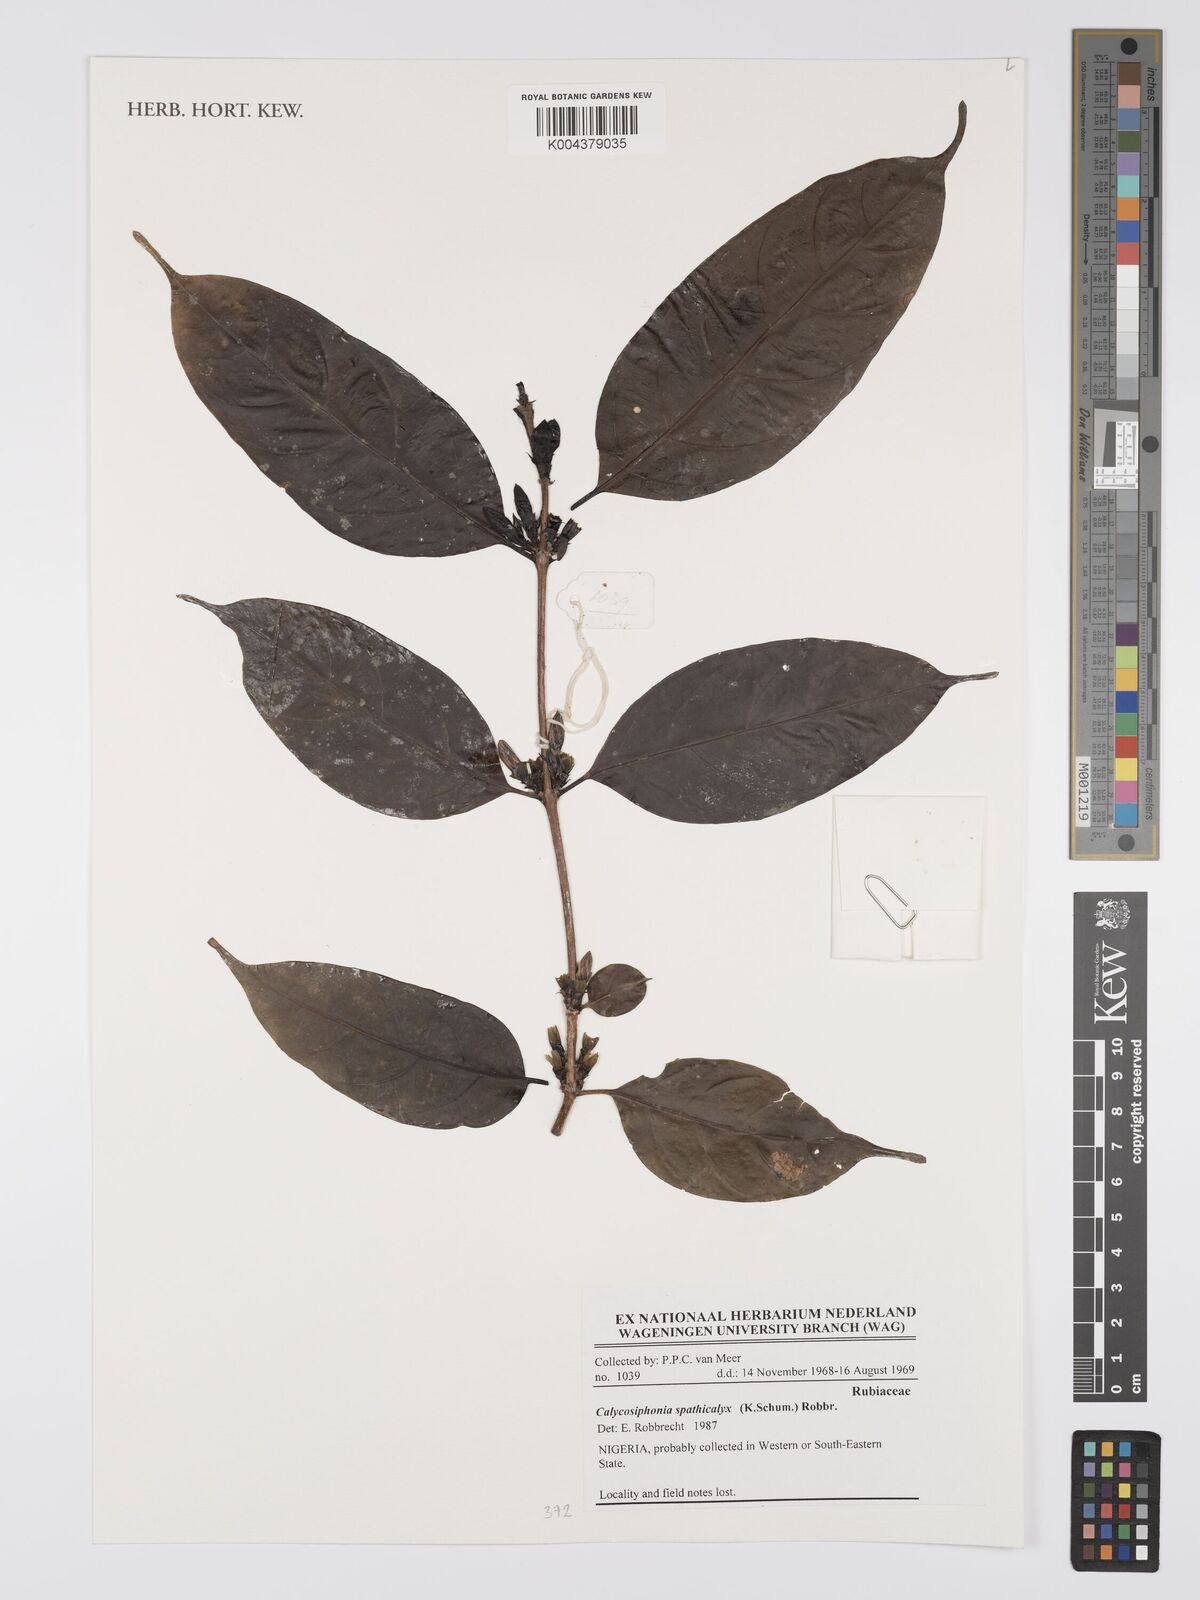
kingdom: Plantae
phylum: Tracheophyta
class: Magnoliopsida
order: Gentianales
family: Rubiaceae
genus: Calycosiphonia
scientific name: Calycosiphonia spathicalyx
